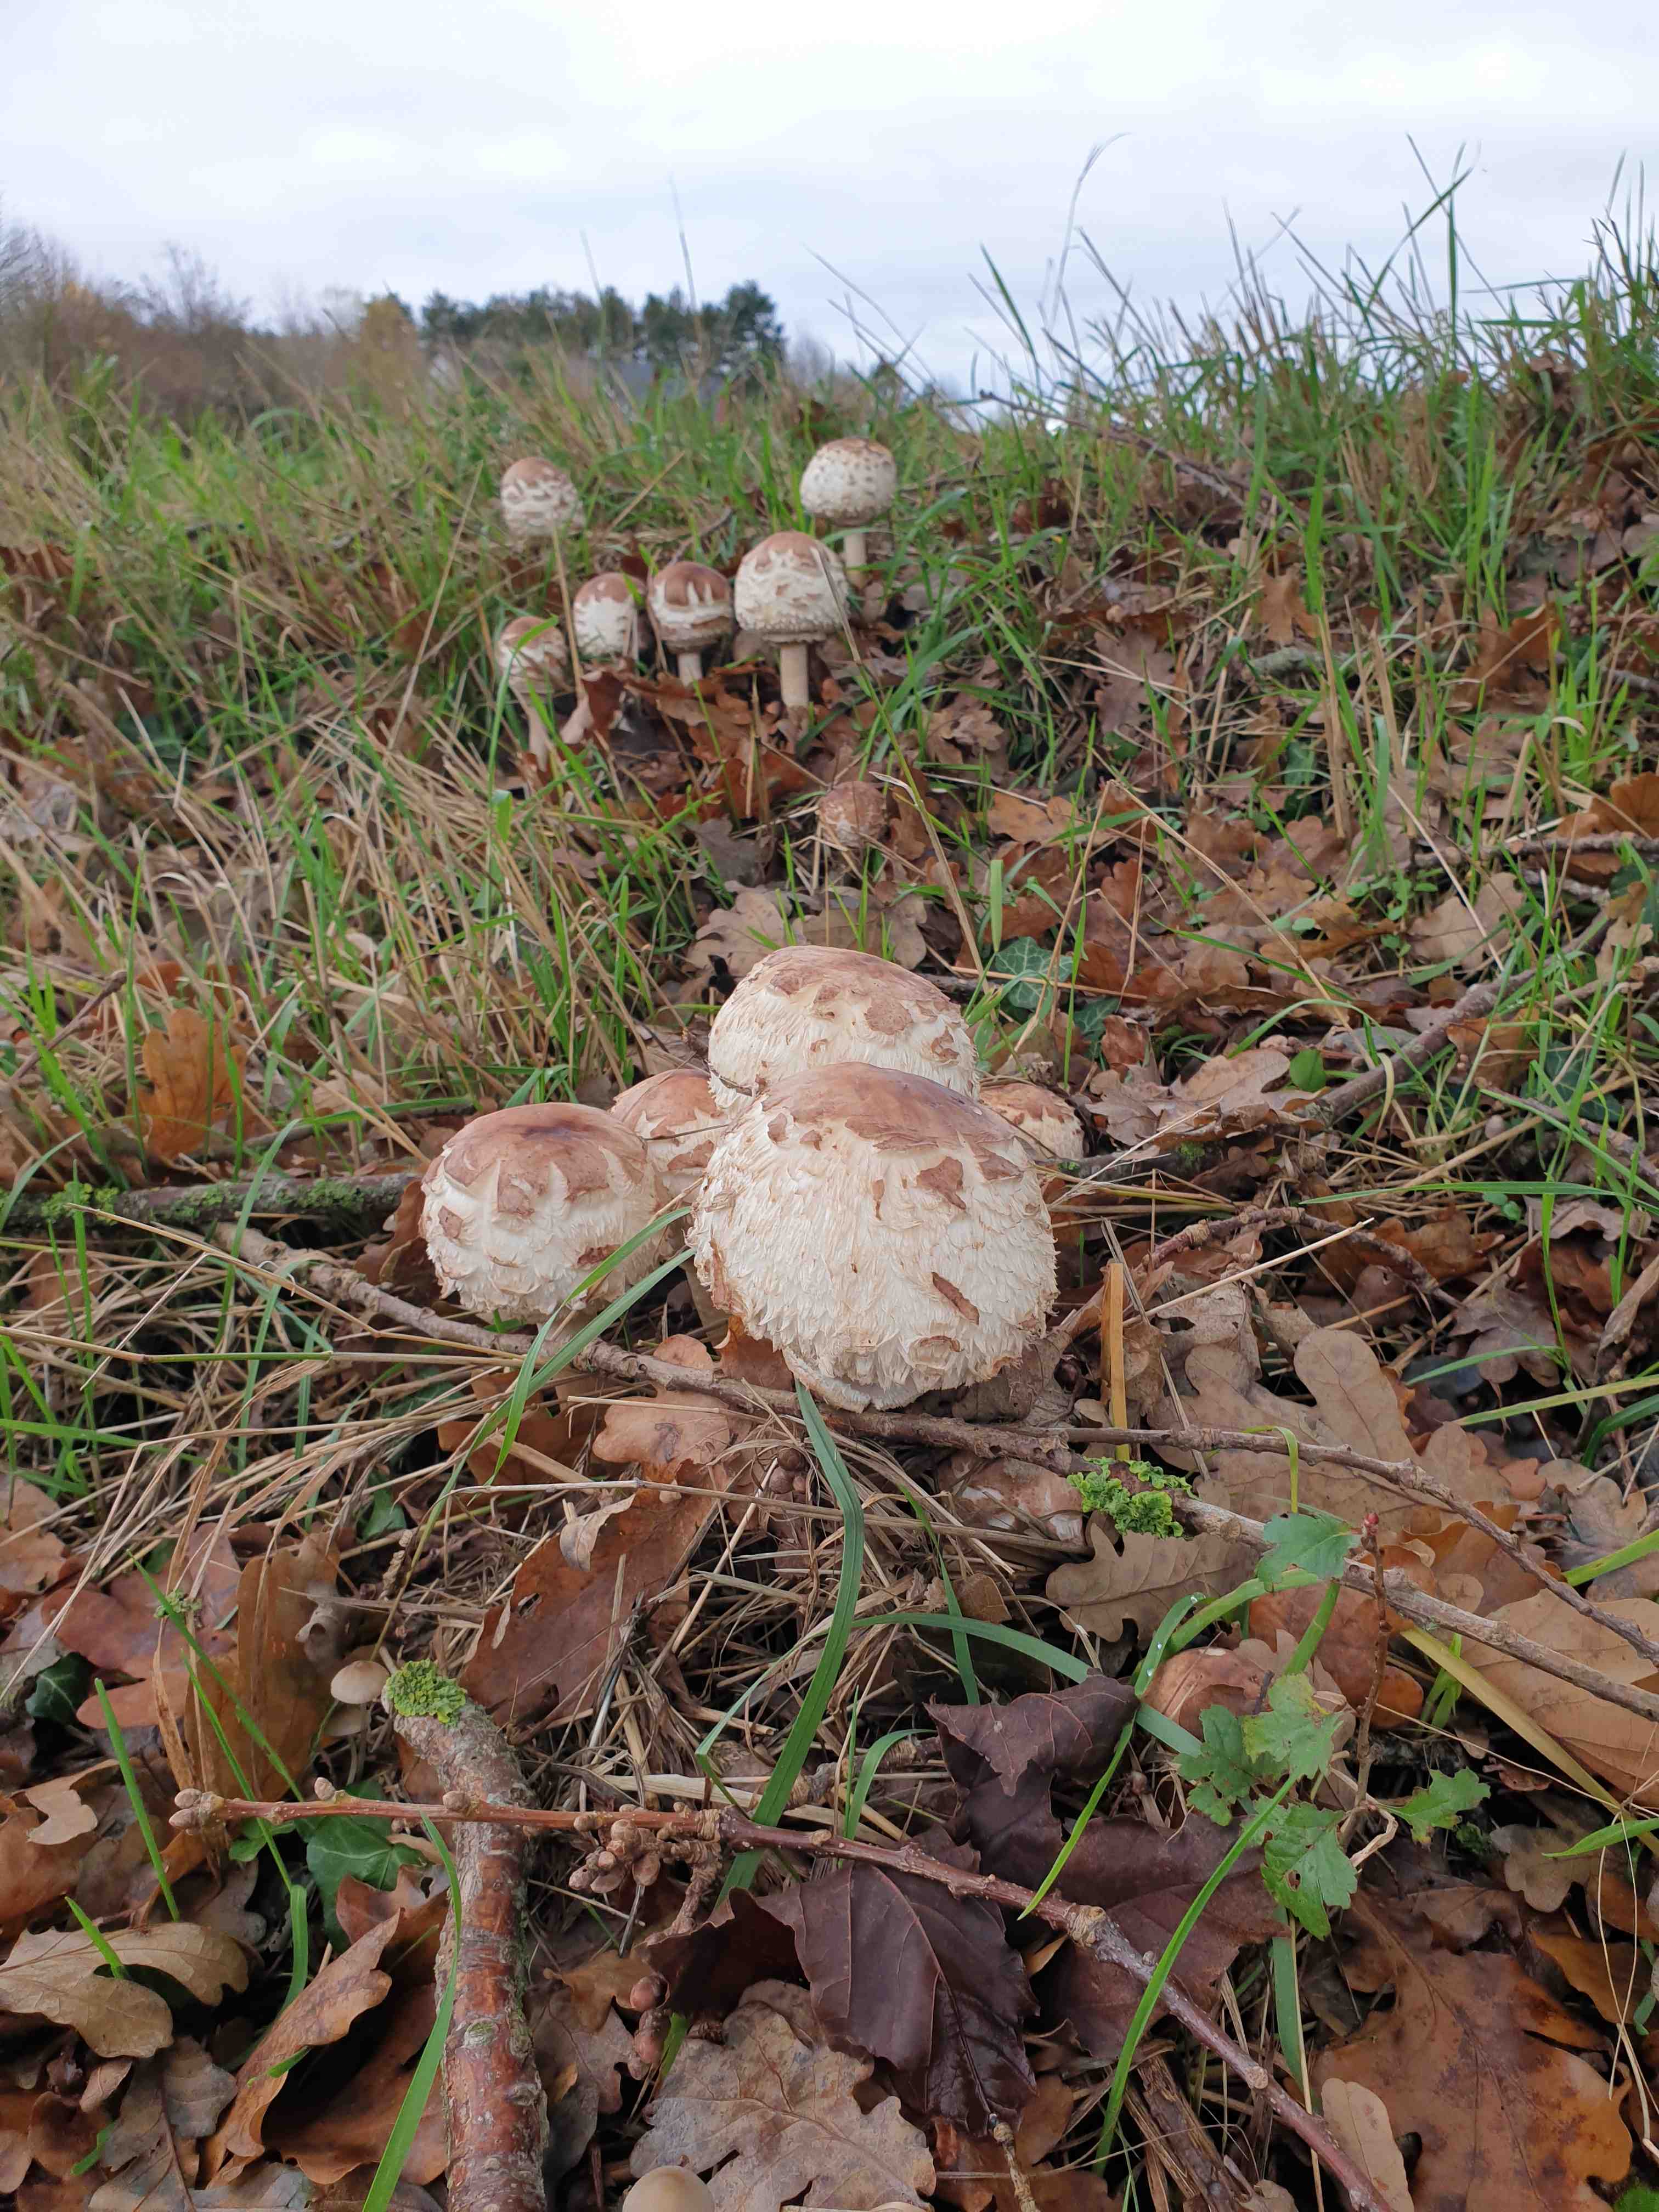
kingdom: Fungi
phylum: Basidiomycota
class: Agaricomycetes
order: Agaricales
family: Agaricaceae
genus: Chlorophyllum
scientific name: Chlorophyllum rhacodes
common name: ægte rabarberhat
